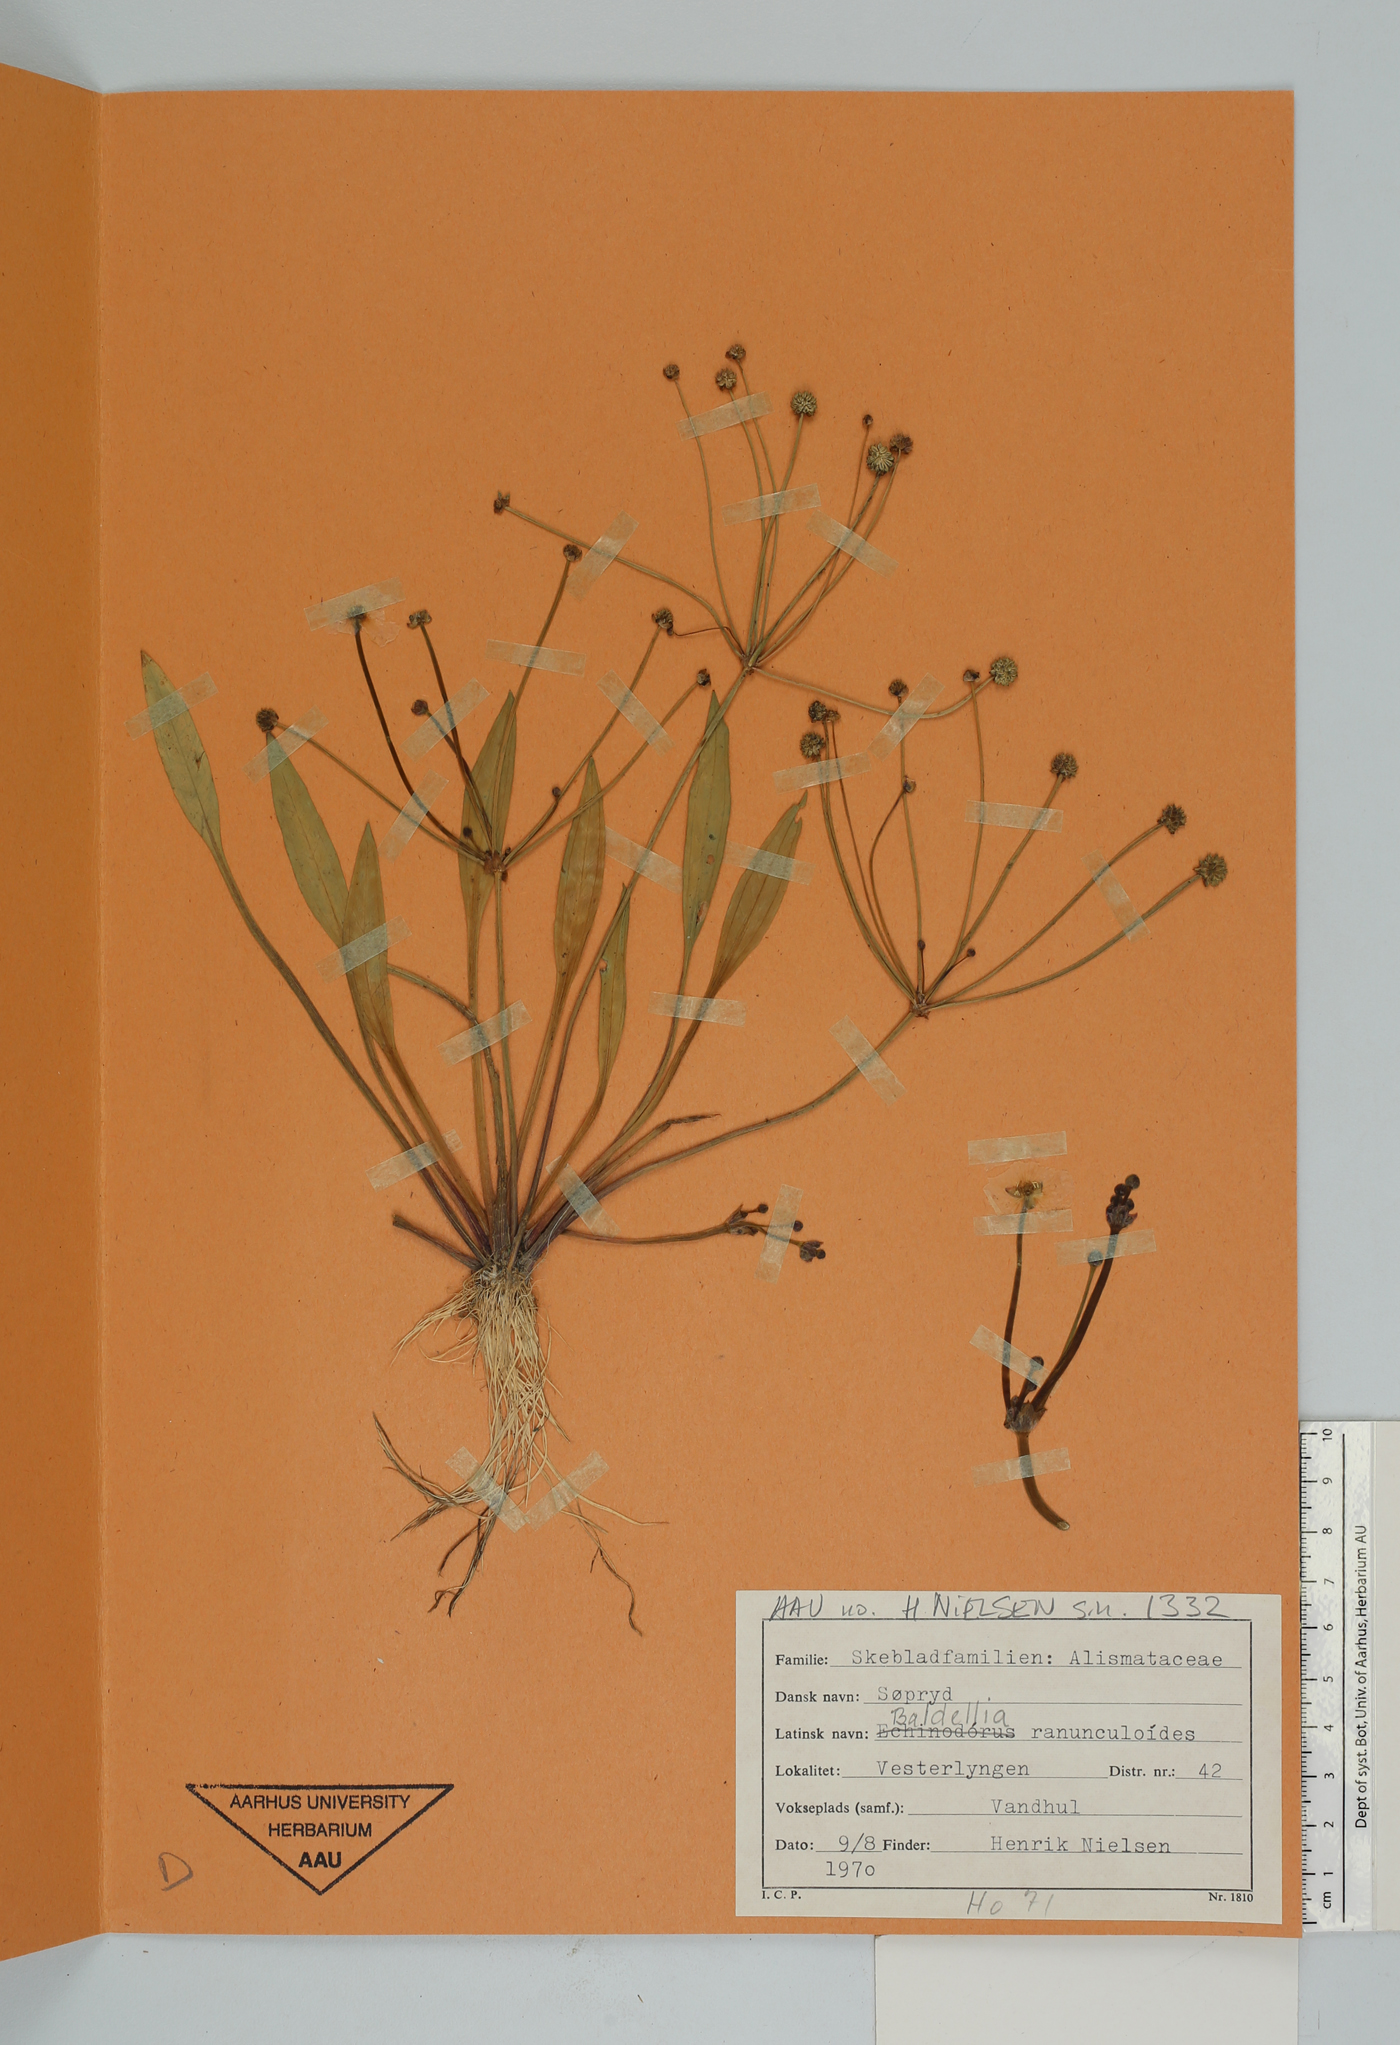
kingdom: Plantae
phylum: Tracheophyta
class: Liliopsida
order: Alismatales
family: Alismataceae
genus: Baldellia
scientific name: Baldellia ranunculoides
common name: Lesser water-plantain
